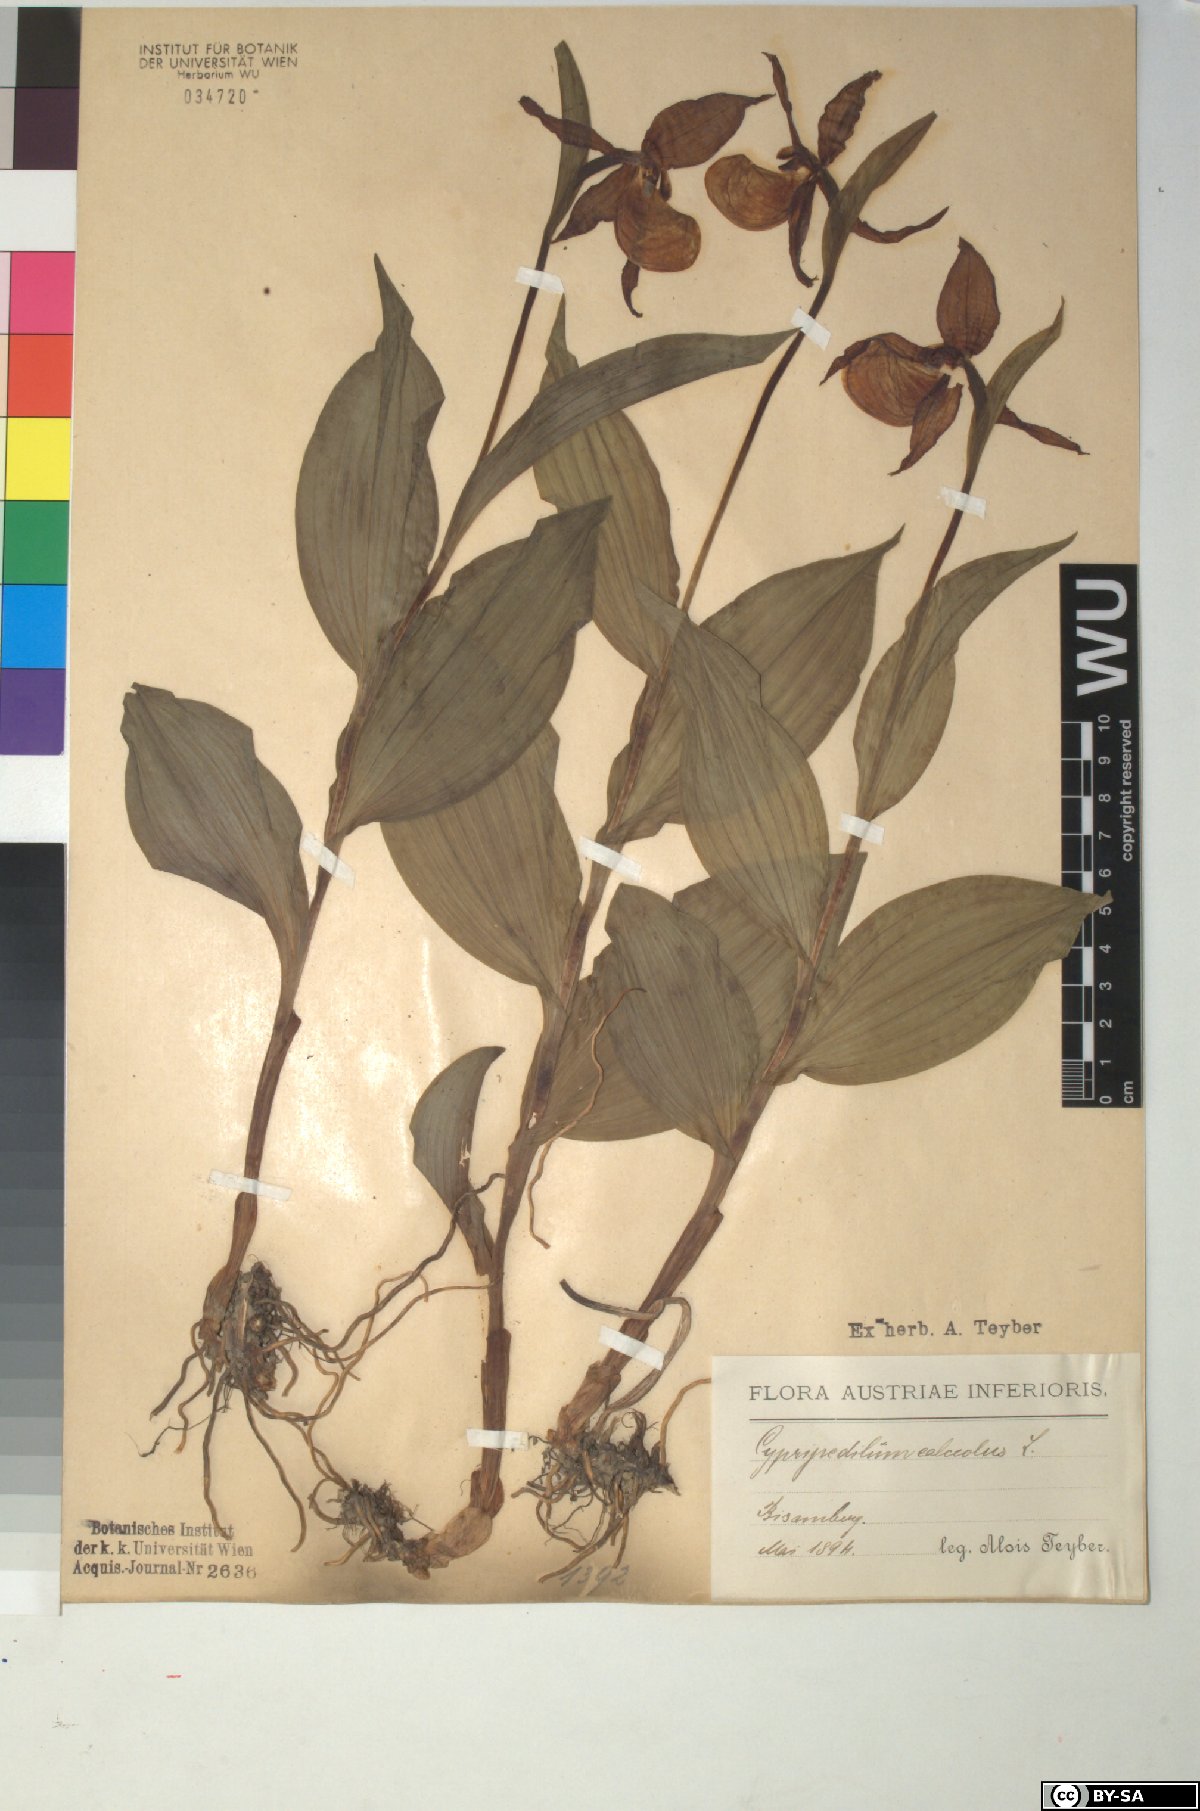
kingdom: Plantae
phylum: Tracheophyta
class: Liliopsida
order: Asparagales
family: Orchidaceae
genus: Cypripedium
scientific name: Cypripedium calceolus
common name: Lady's-slipper
